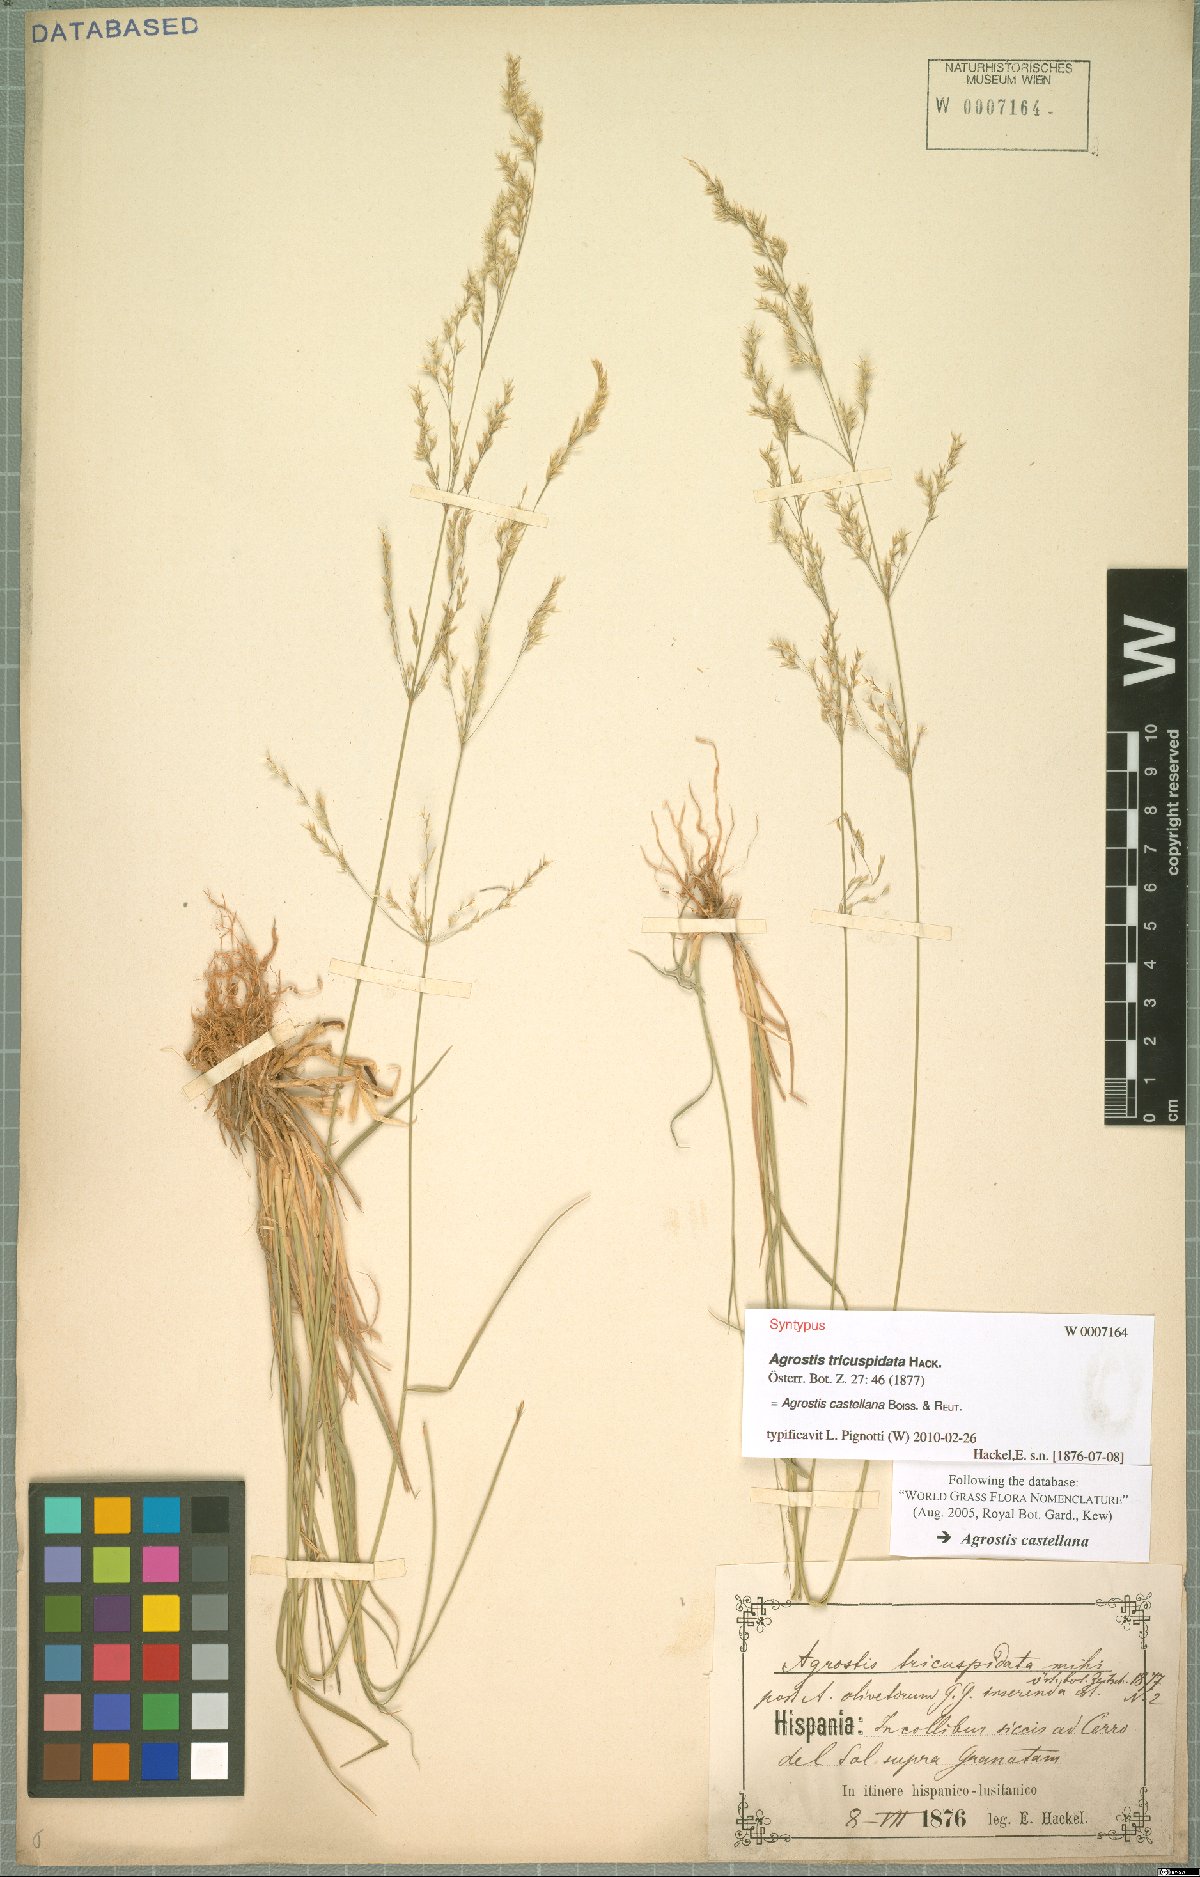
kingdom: Plantae
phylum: Tracheophyta
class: Liliopsida
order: Poales
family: Poaceae
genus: Agrostis
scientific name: Agrostis castellana
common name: Highland bent
